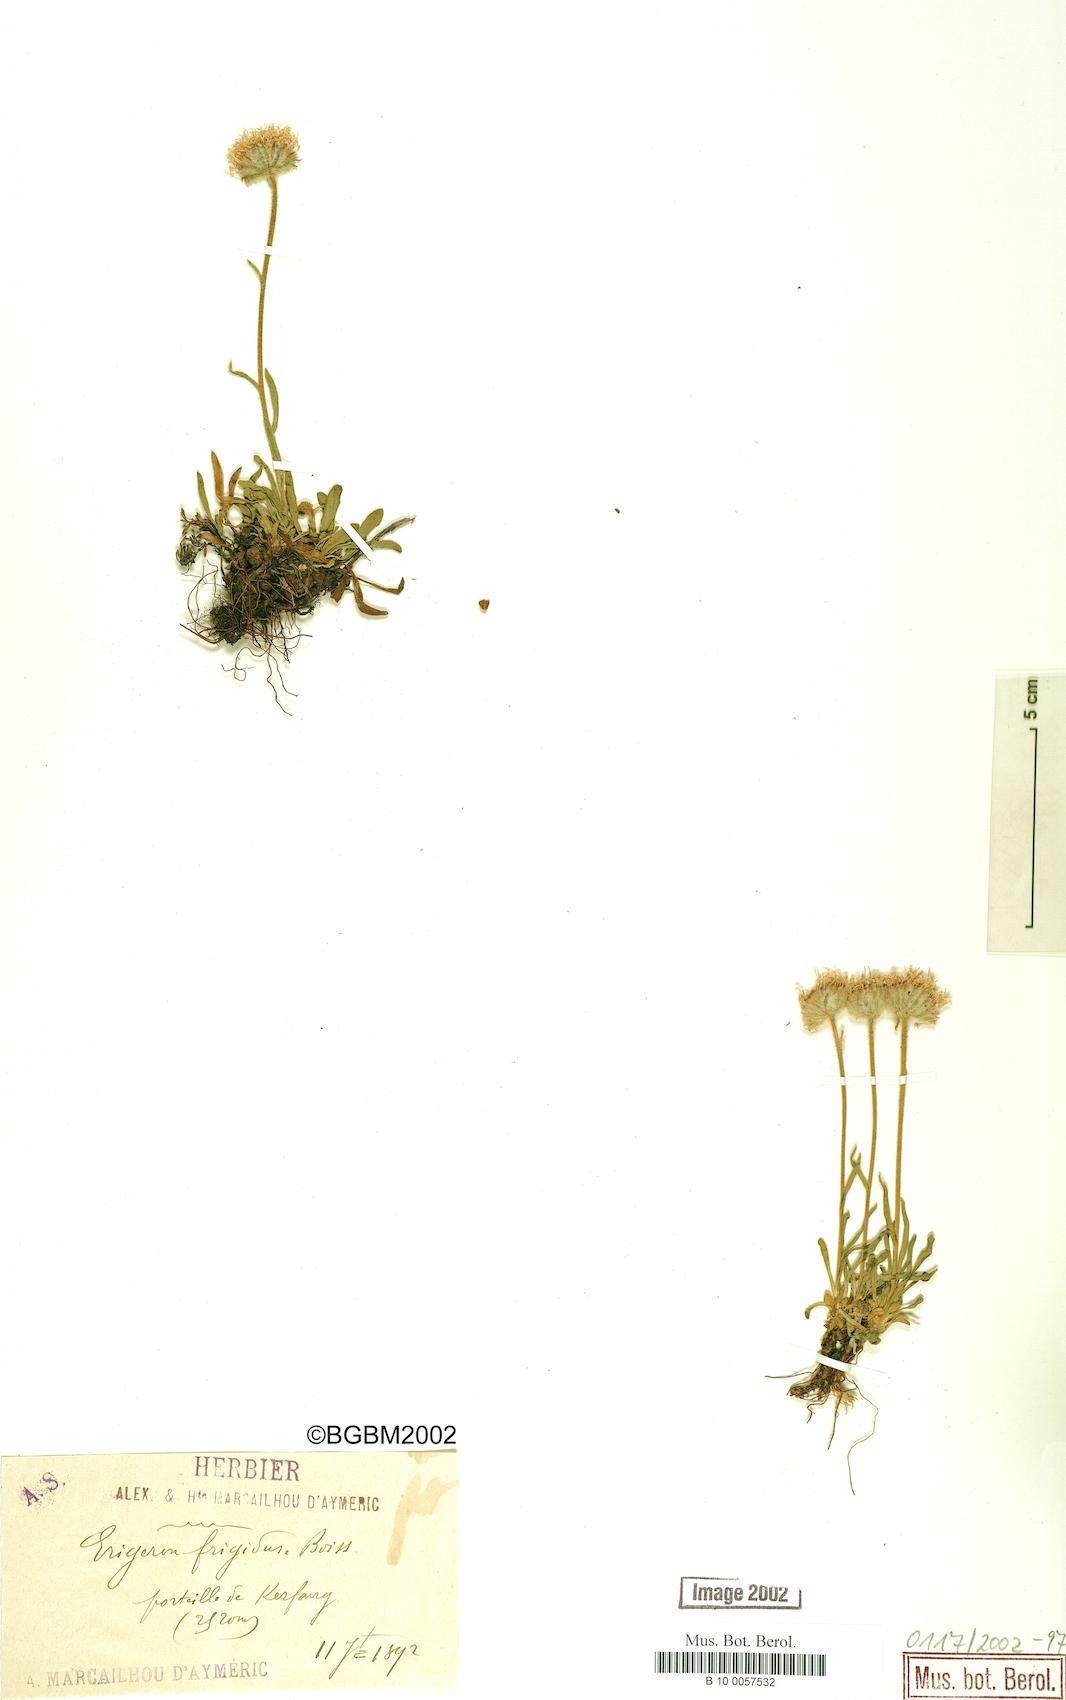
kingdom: Plantae
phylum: Tracheophyta
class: Magnoliopsida
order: Asterales
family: Asteraceae
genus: Erigeron
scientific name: Erigeron aragonensis
